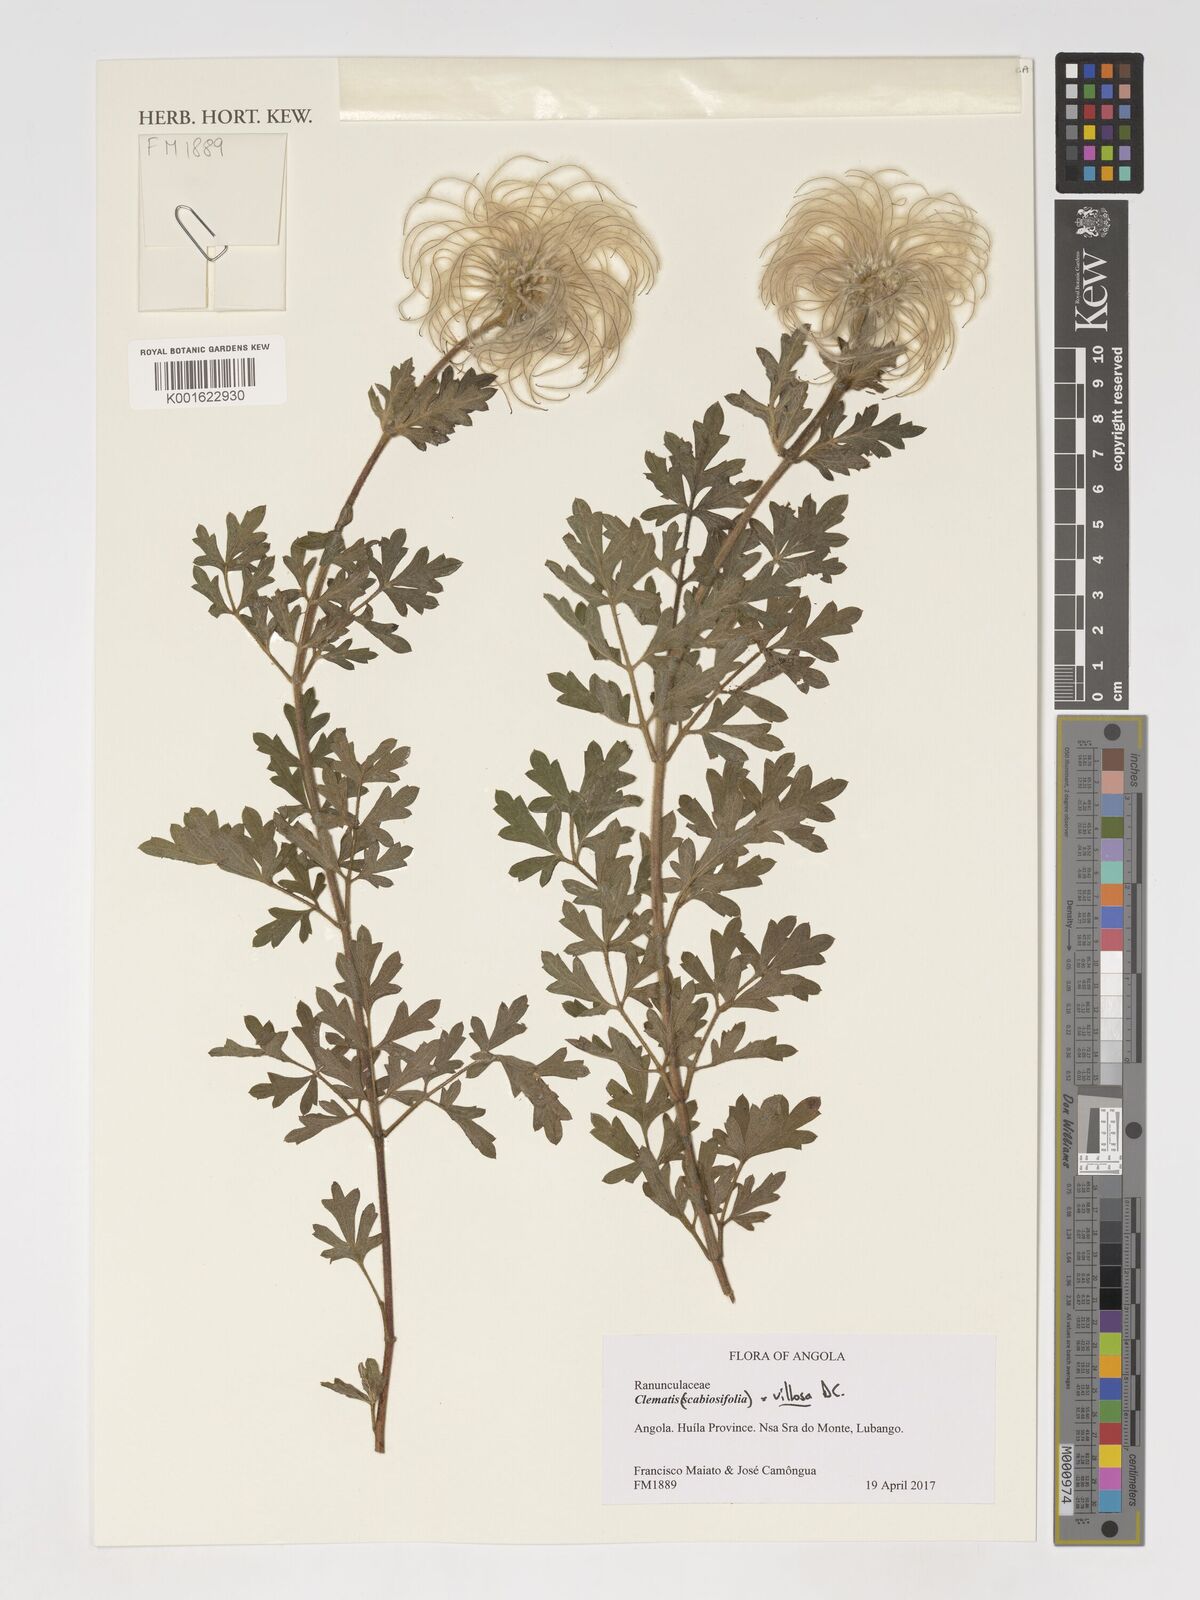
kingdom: Plantae
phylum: Tracheophyta
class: Magnoliopsida
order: Ranunculales
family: Ranunculaceae
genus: Clematis
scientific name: Clematis villosa
